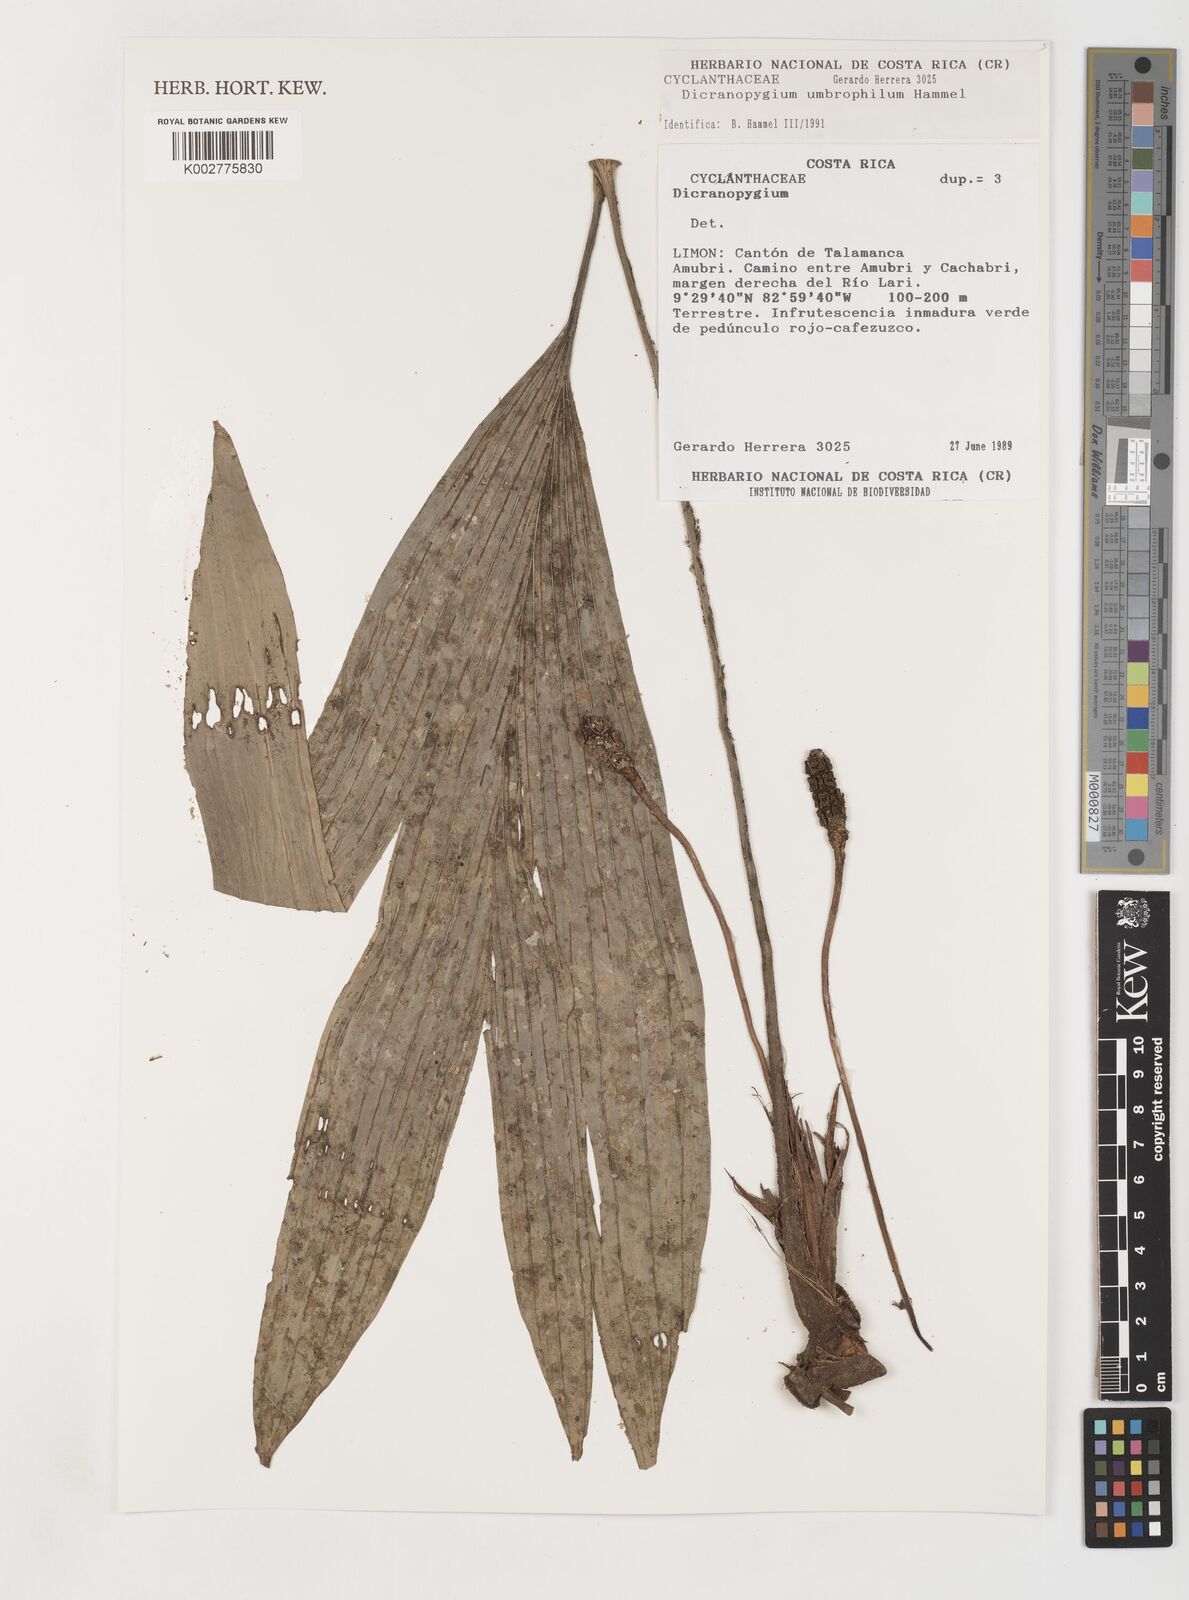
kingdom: Plantae
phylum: Tracheophyta
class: Liliopsida
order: Pandanales
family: Cyclanthaceae
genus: Dicranopygium
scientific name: Dicranopygium umbrophilum
